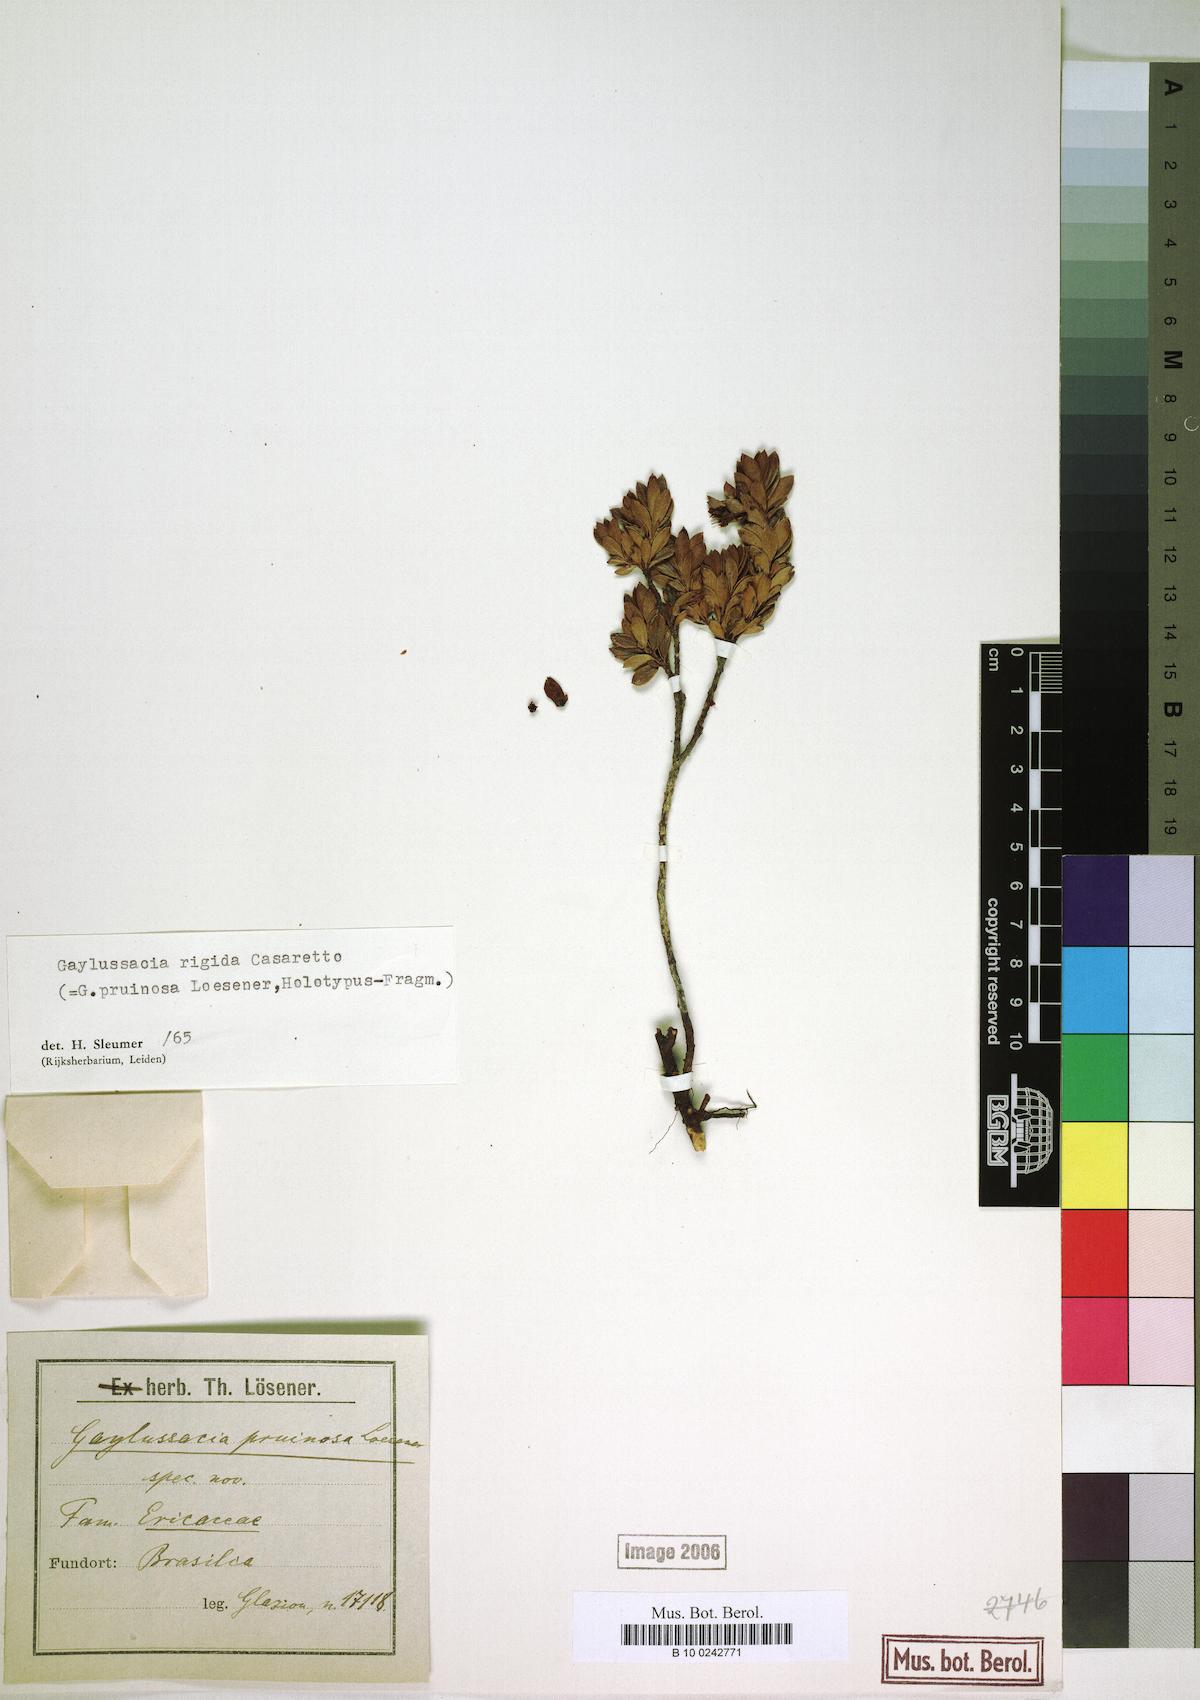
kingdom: Plantae
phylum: Tracheophyta
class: Magnoliopsida
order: Ericales
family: Ericaceae
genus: Gaylussacia
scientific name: Gaylussacia rigida
